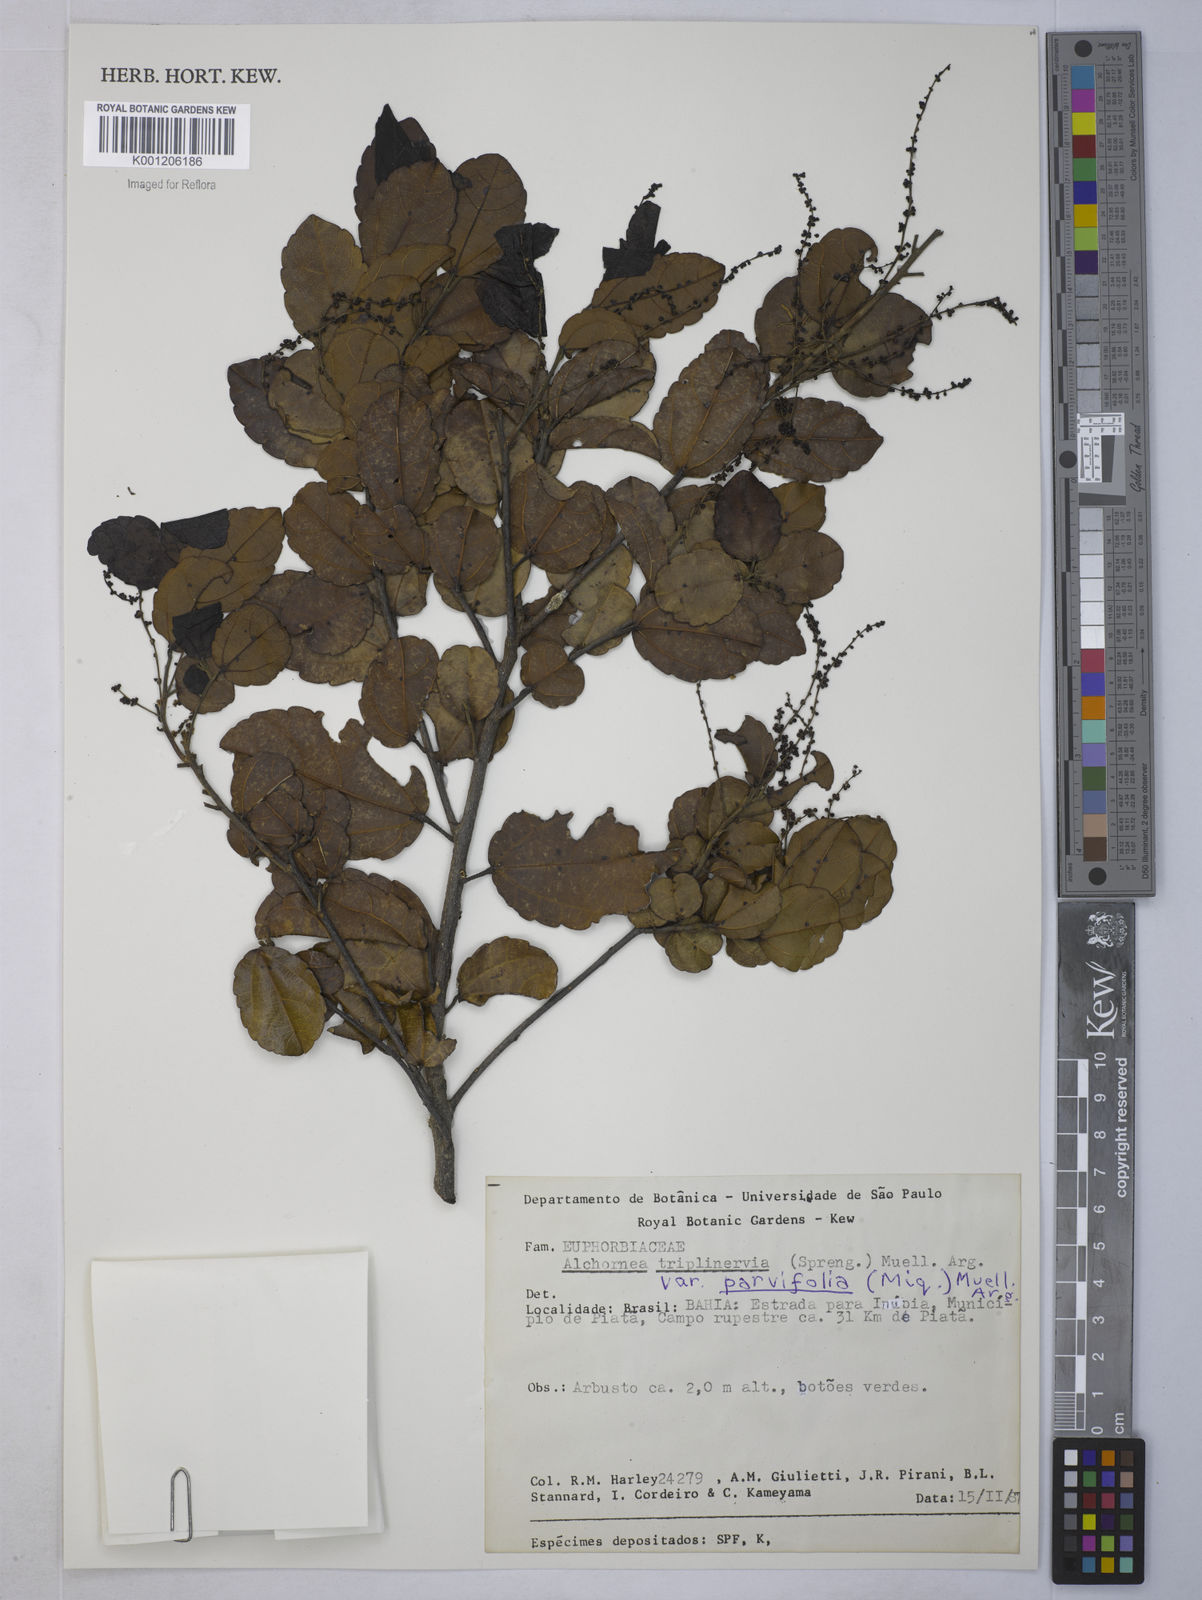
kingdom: Plantae
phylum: Tracheophyta
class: Magnoliopsida
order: Malpighiales
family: Euphorbiaceae
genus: Alchornea
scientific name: Alchornea
